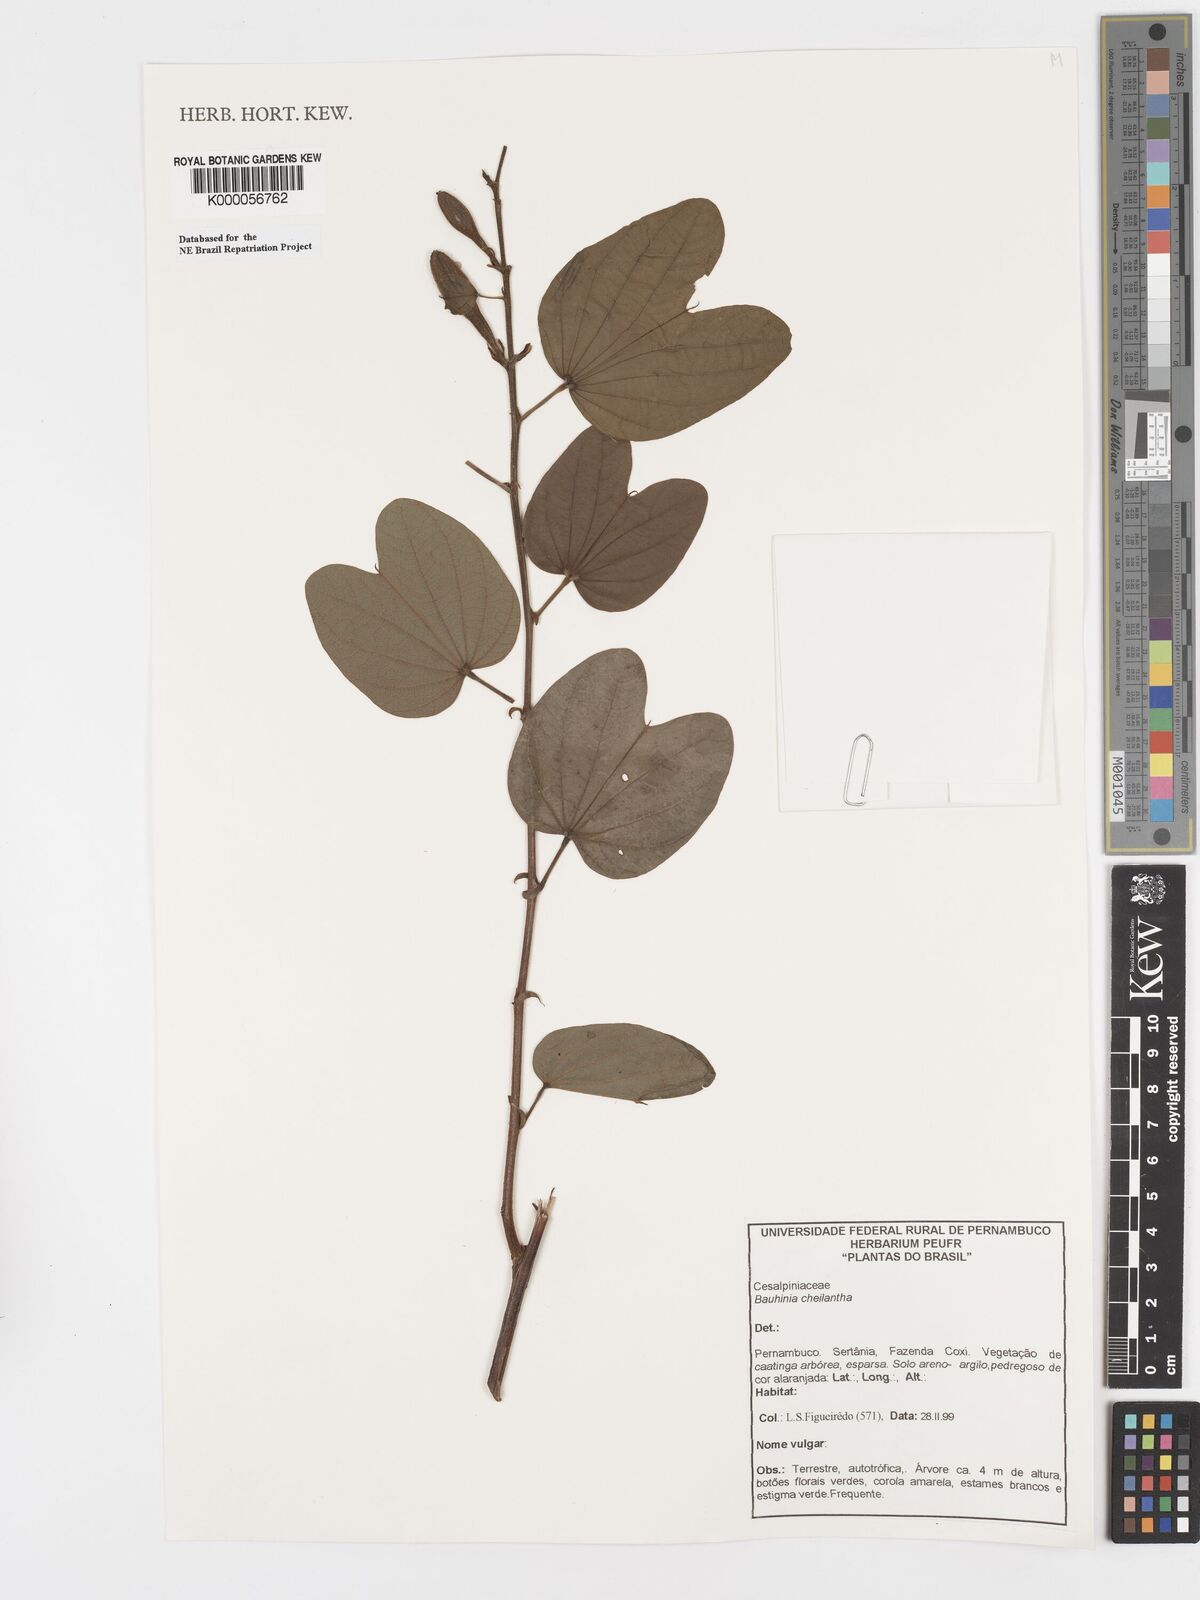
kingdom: Plantae
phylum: Tracheophyta
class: Magnoliopsida
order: Fabales
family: Fabaceae
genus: Bauhinia
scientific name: Bauhinia cheilantha
